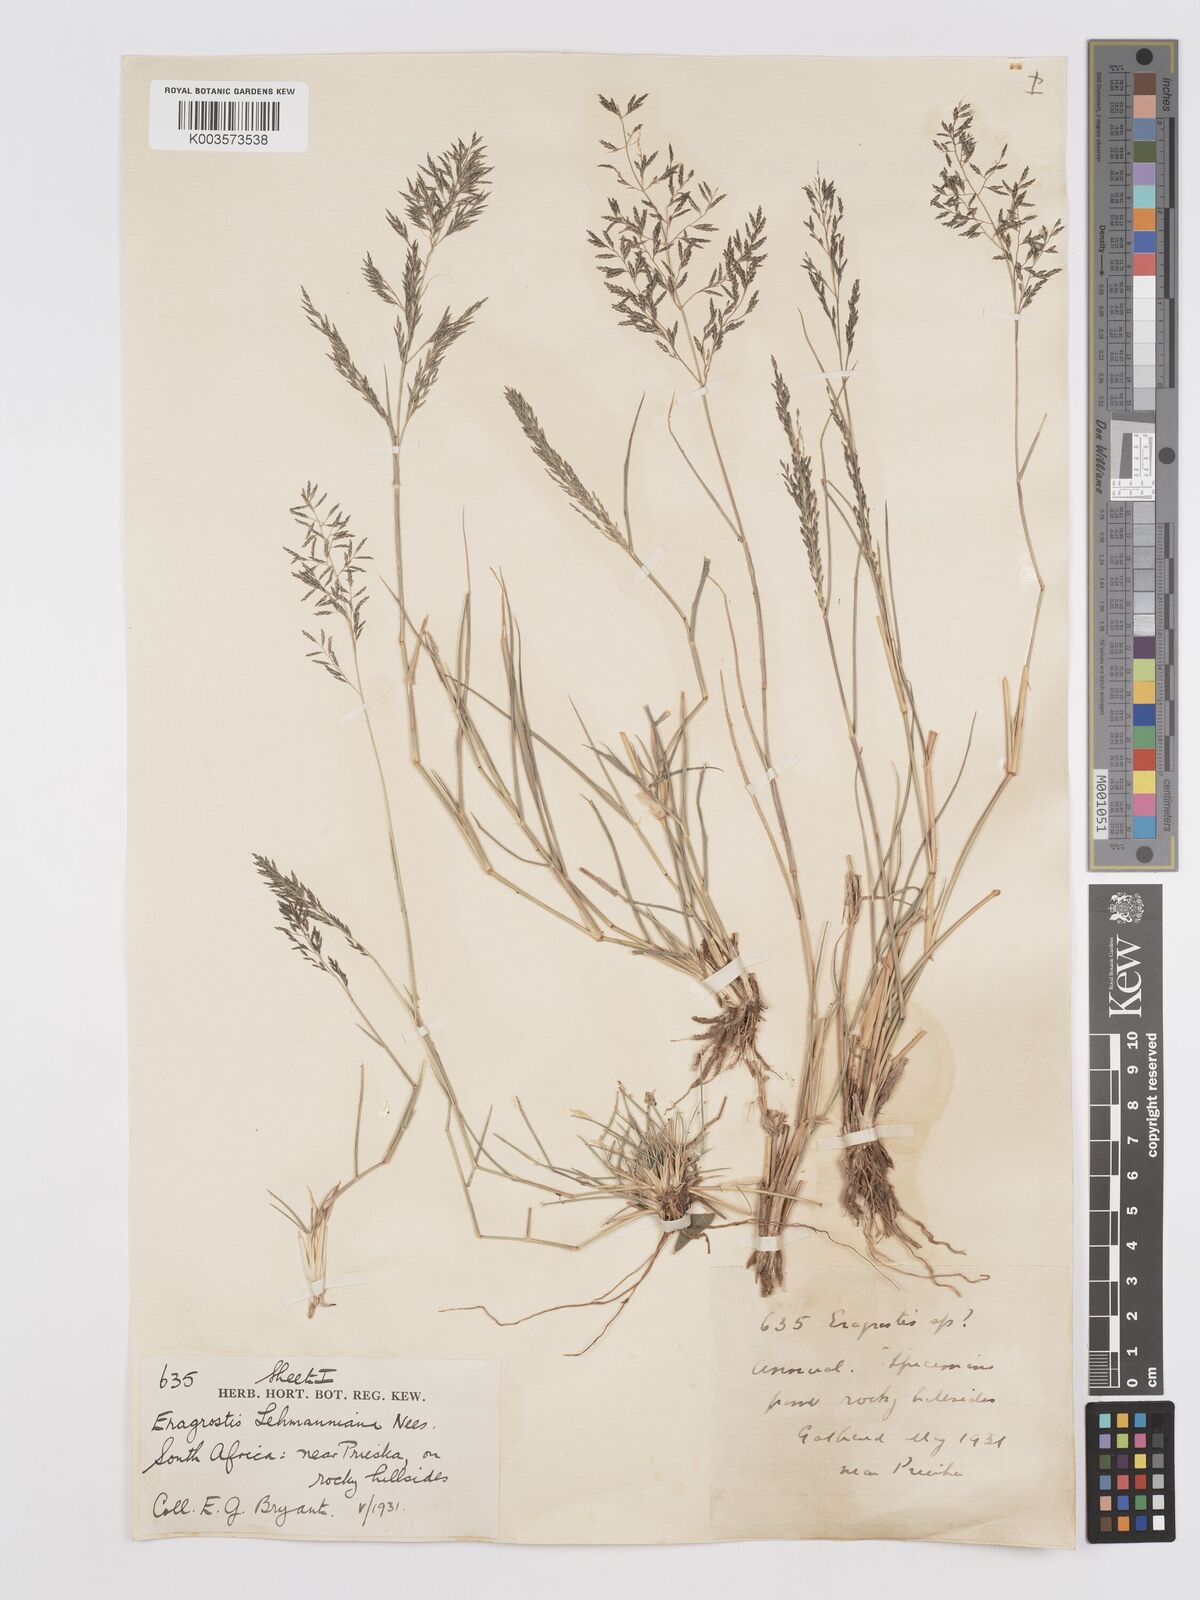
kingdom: Plantae
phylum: Tracheophyta
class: Liliopsida
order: Poales
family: Poaceae
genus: Eragrostis
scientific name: Eragrostis lehmanniana
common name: Lehmann lovegrass
